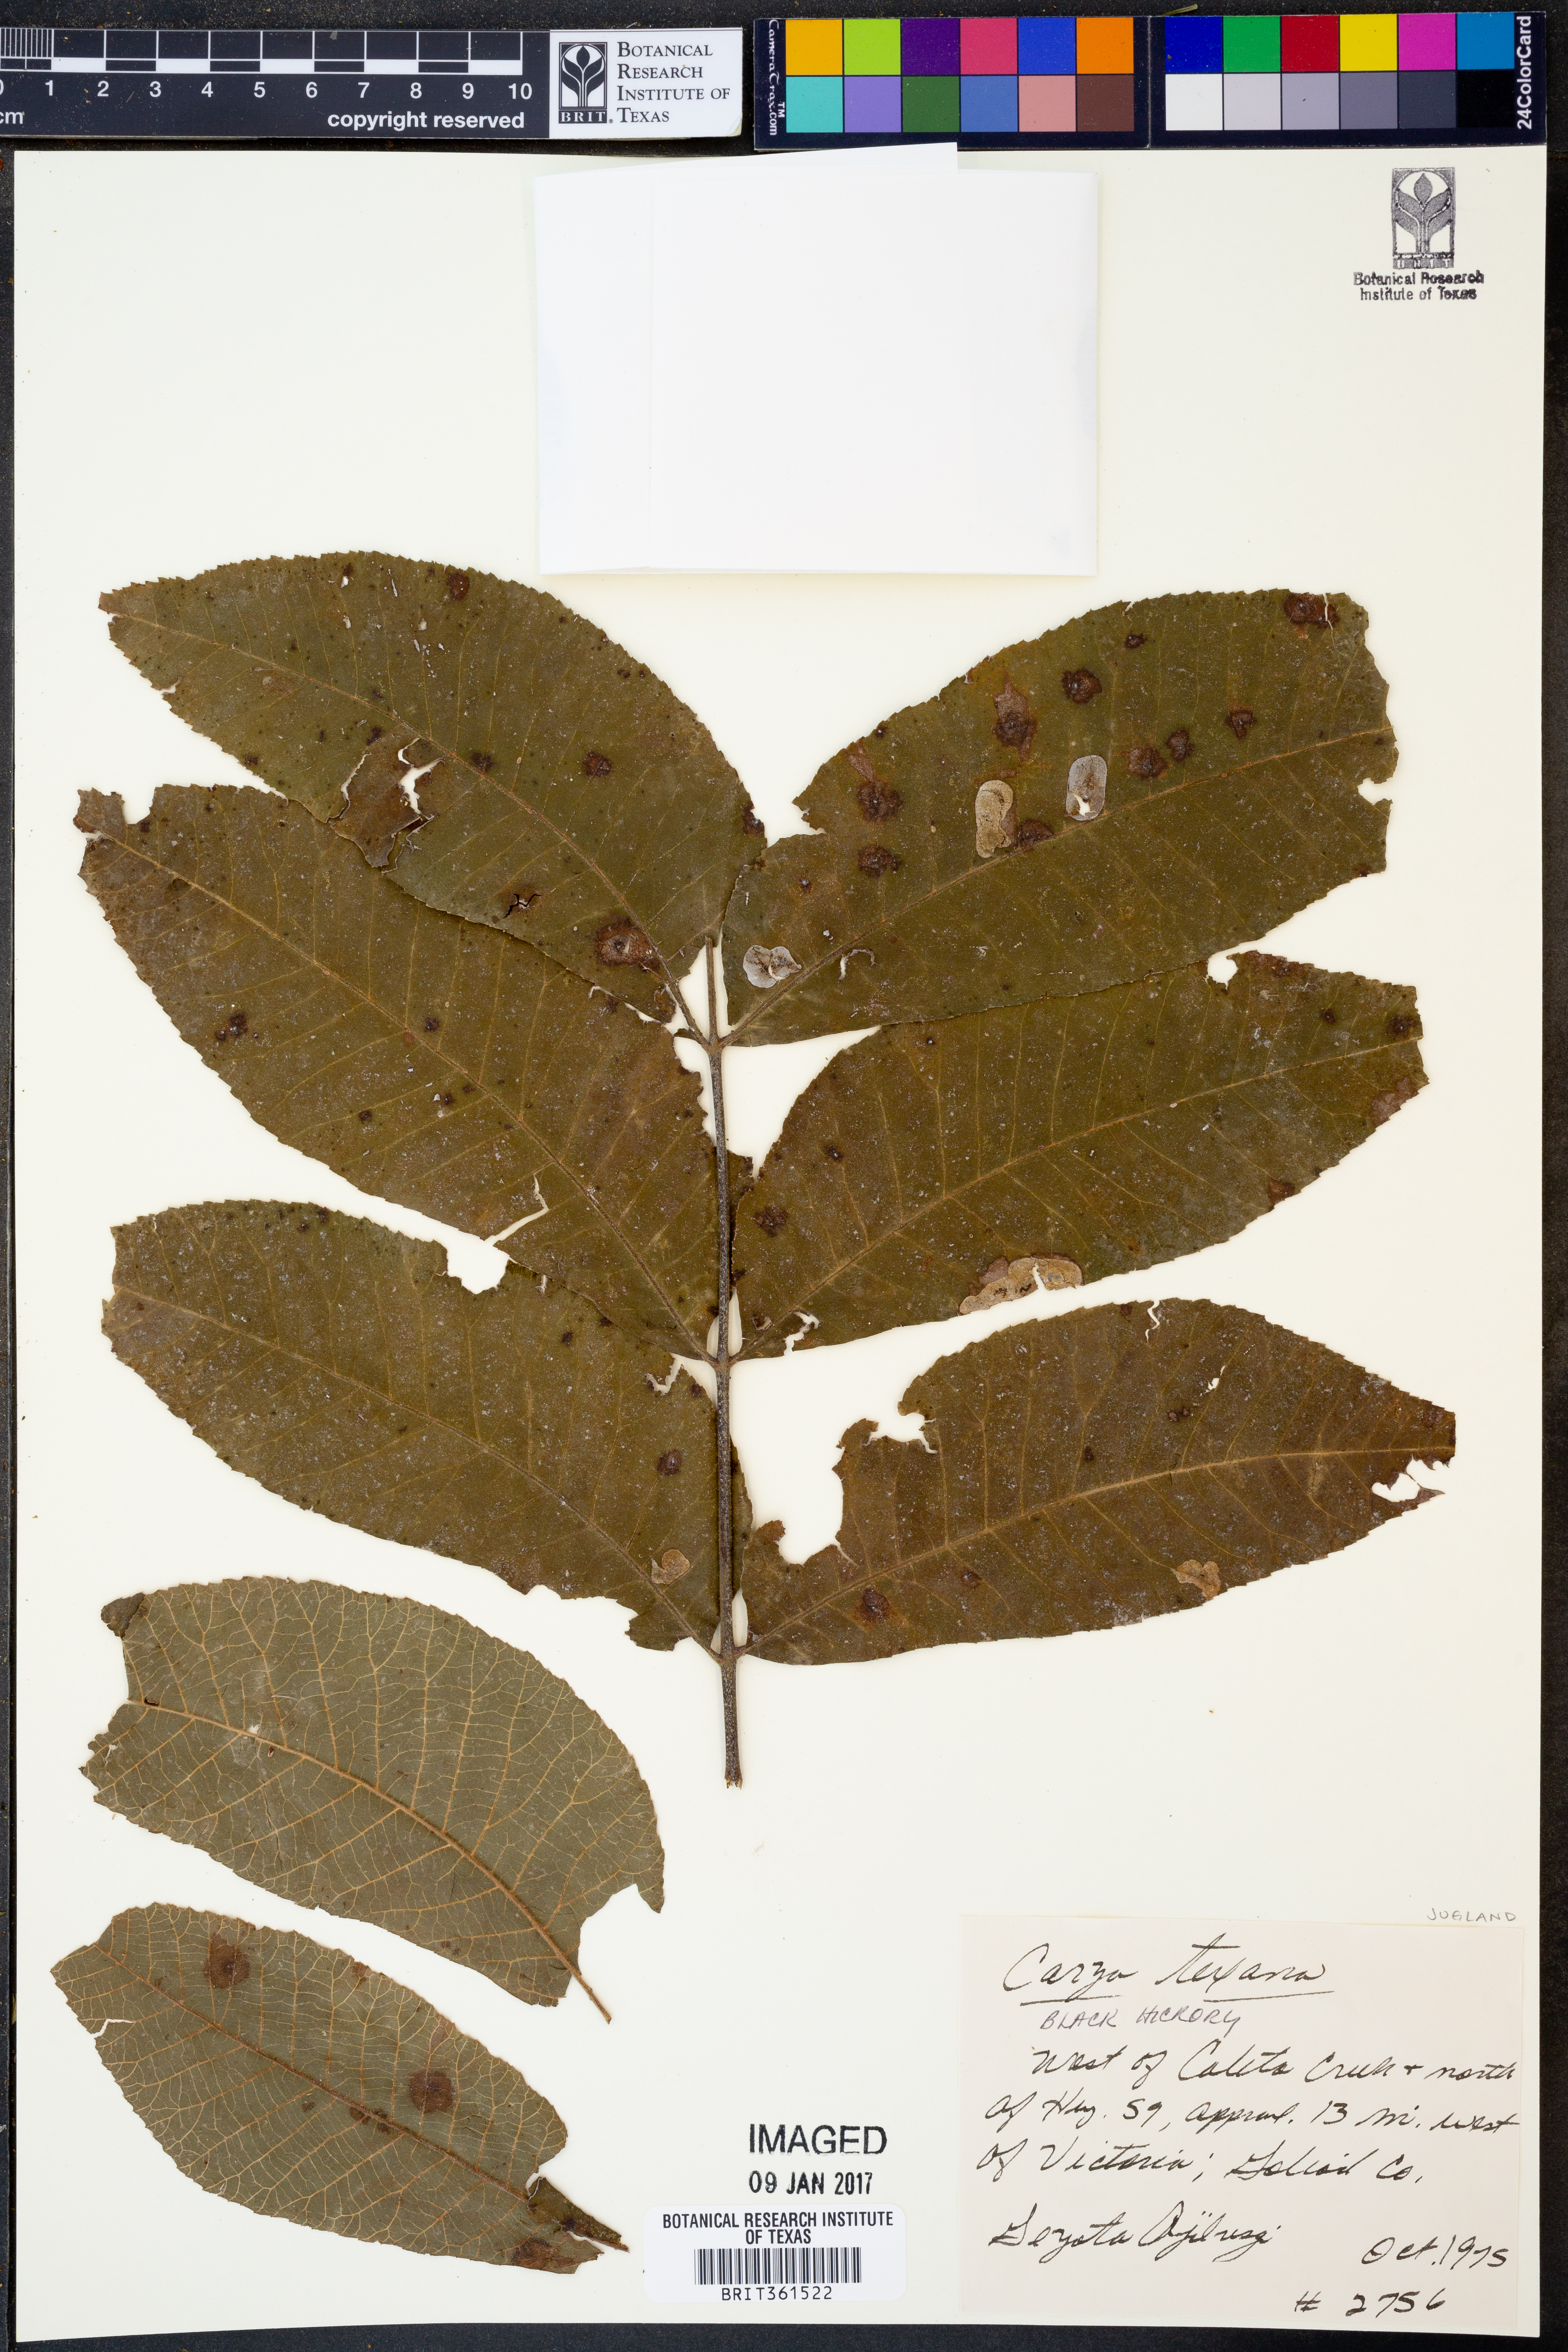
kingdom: Plantae
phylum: Tracheophyta
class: Magnoliopsida
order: Fagales
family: Juglandaceae
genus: Carya
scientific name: Carya texana
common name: Black hickory
